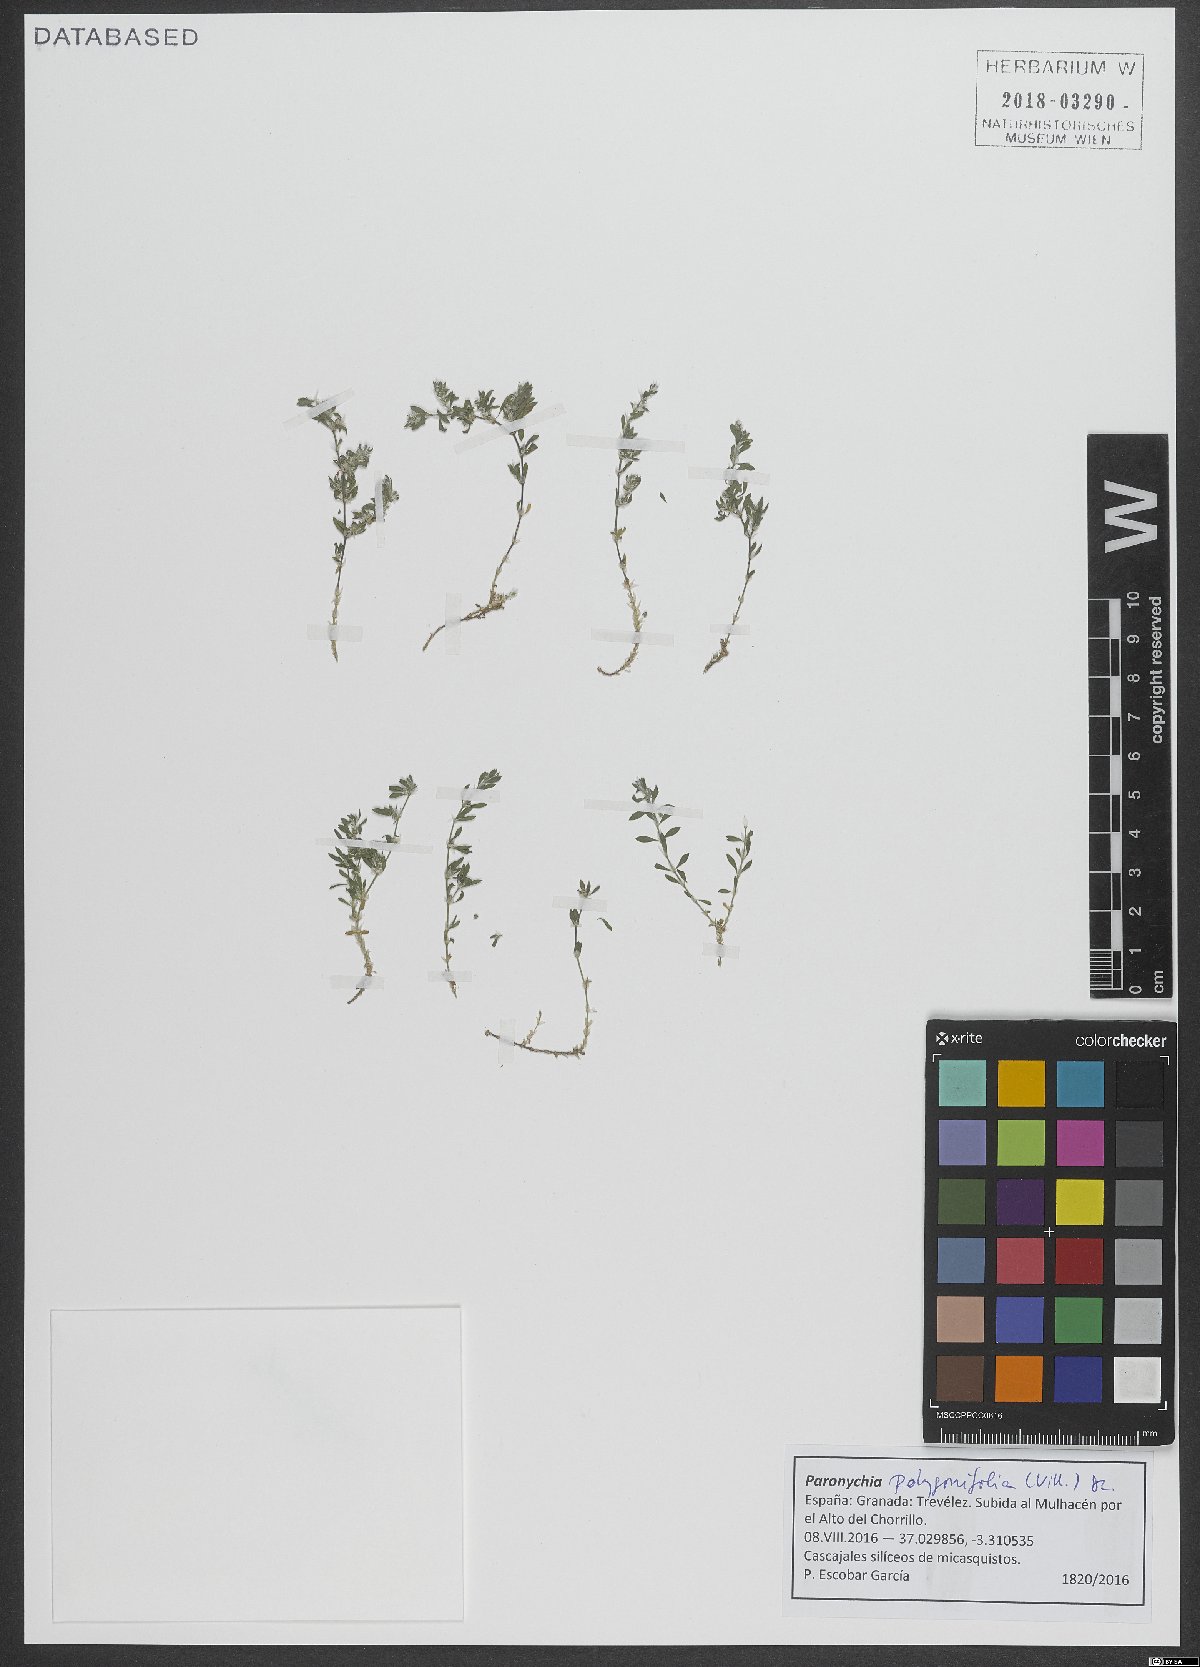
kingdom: Plantae
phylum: Tracheophyta
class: Magnoliopsida
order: Caryophyllales
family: Caryophyllaceae
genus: Paronychia
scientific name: Paronychia polygonifolia
